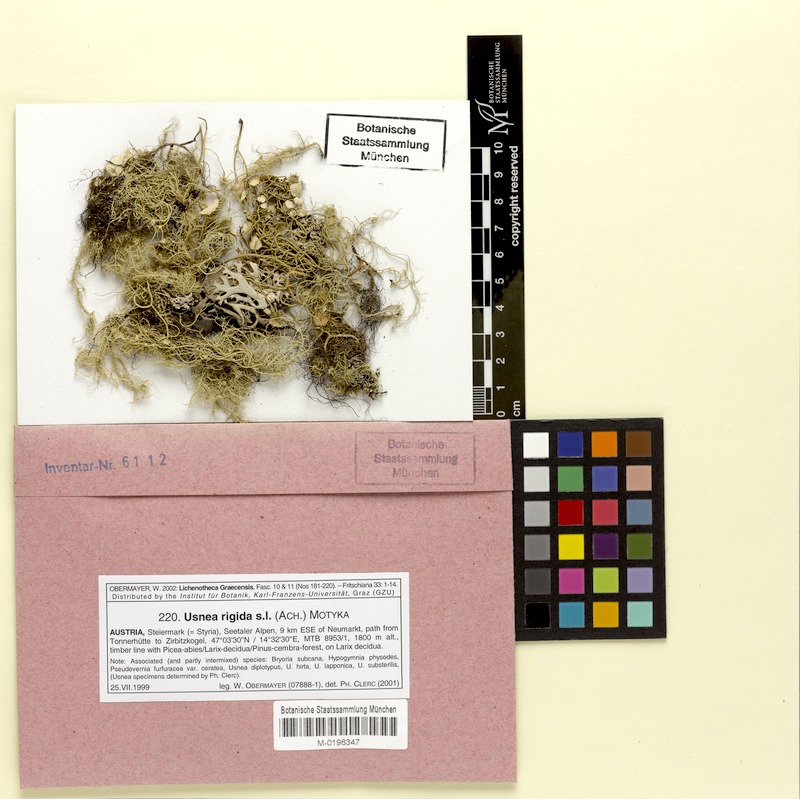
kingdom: Fungi
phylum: Ascomycota
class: Lecanoromycetes
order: Lecanorales
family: Parmeliaceae
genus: Usnea
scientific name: Usnea quasirigida
